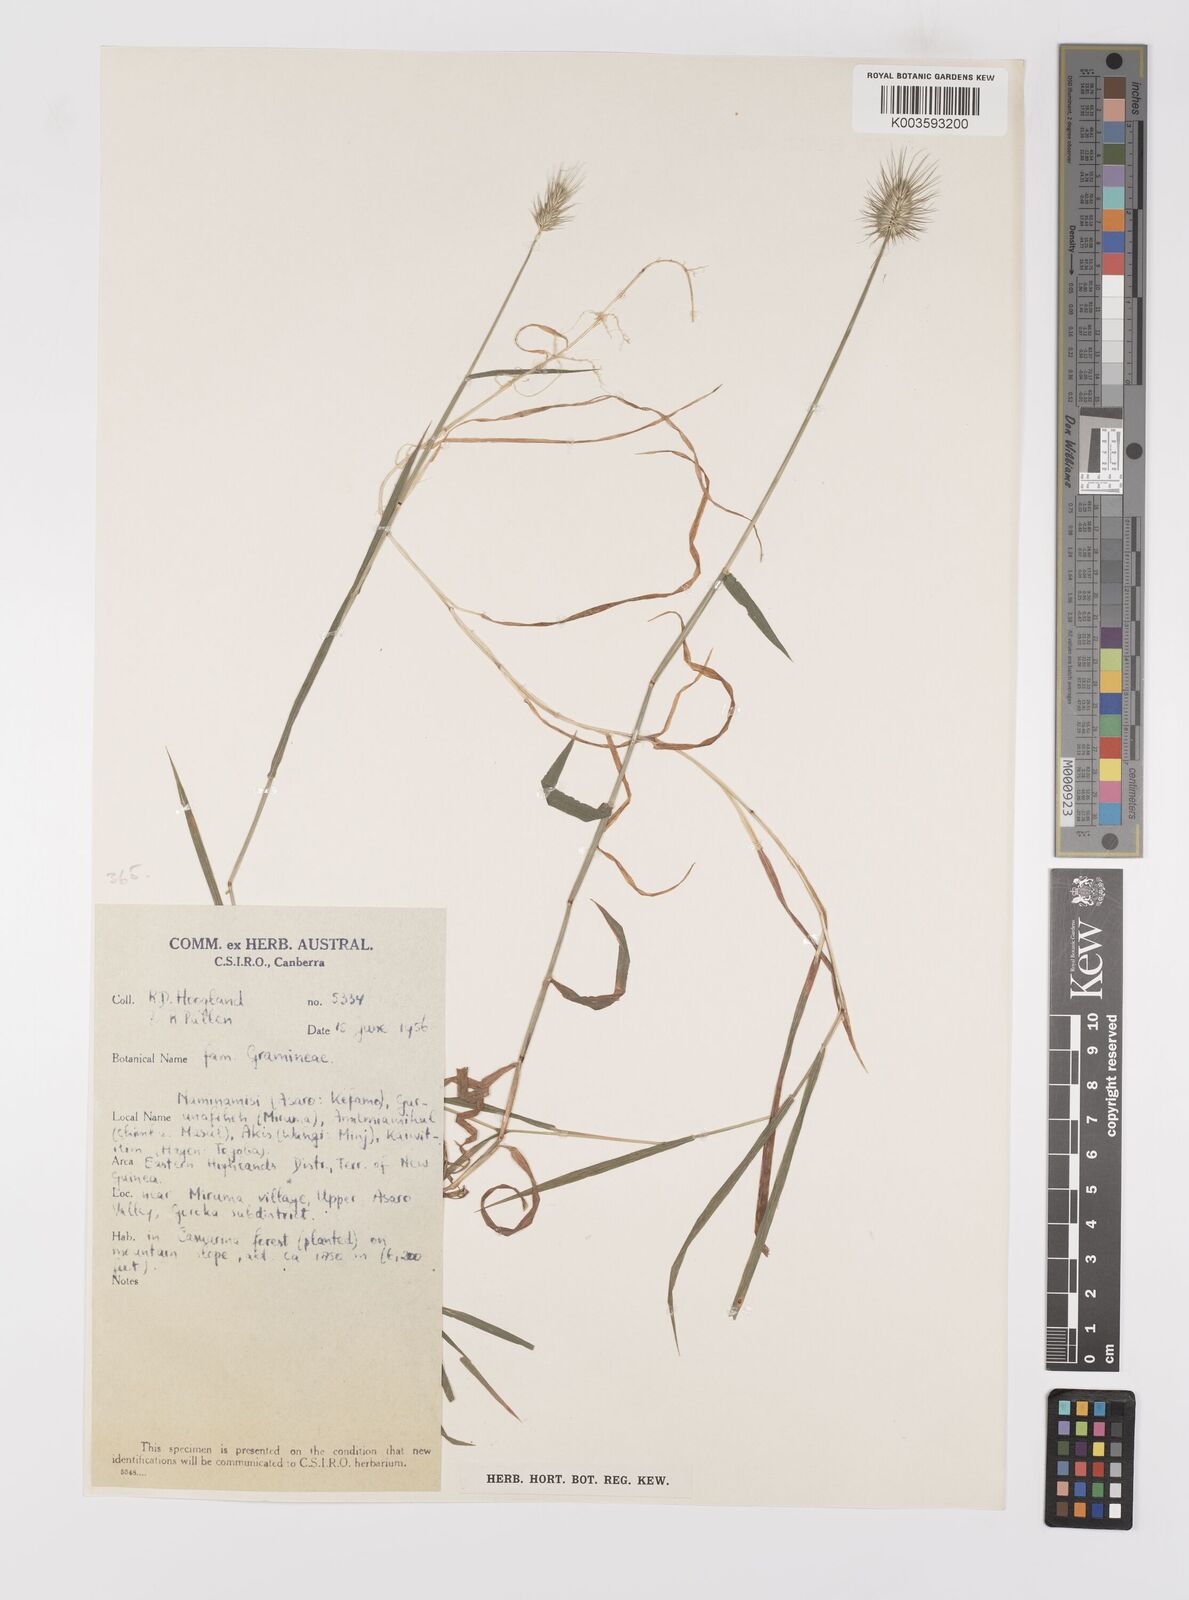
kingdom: Plantae
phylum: Tracheophyta
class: Liliopsida
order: Poales
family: Poaceae
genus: Echinopogon
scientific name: Echinopogon ovatus
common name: Hedgehog-grass
